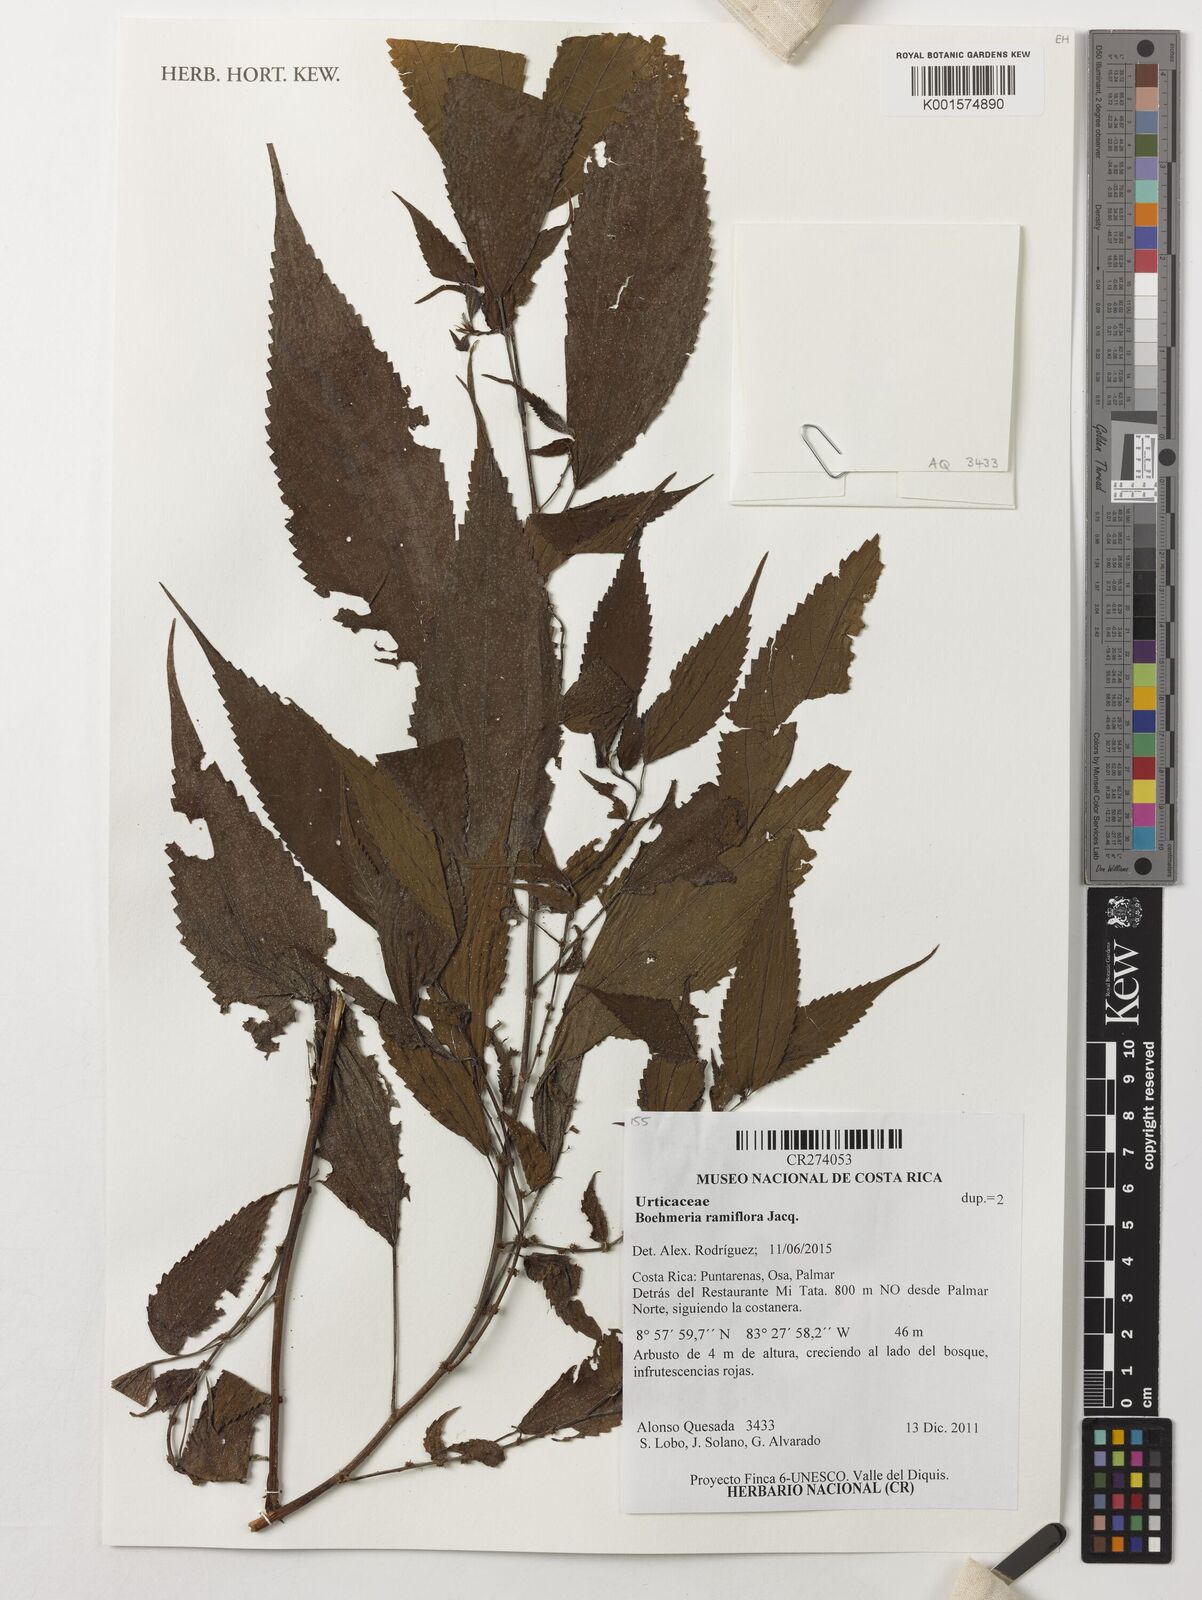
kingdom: Plantae
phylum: Tracheophyta
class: Magnoliopsida
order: Rosales
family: Urticaceae
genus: Boehmeria
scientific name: Boehmeria ramiflora
